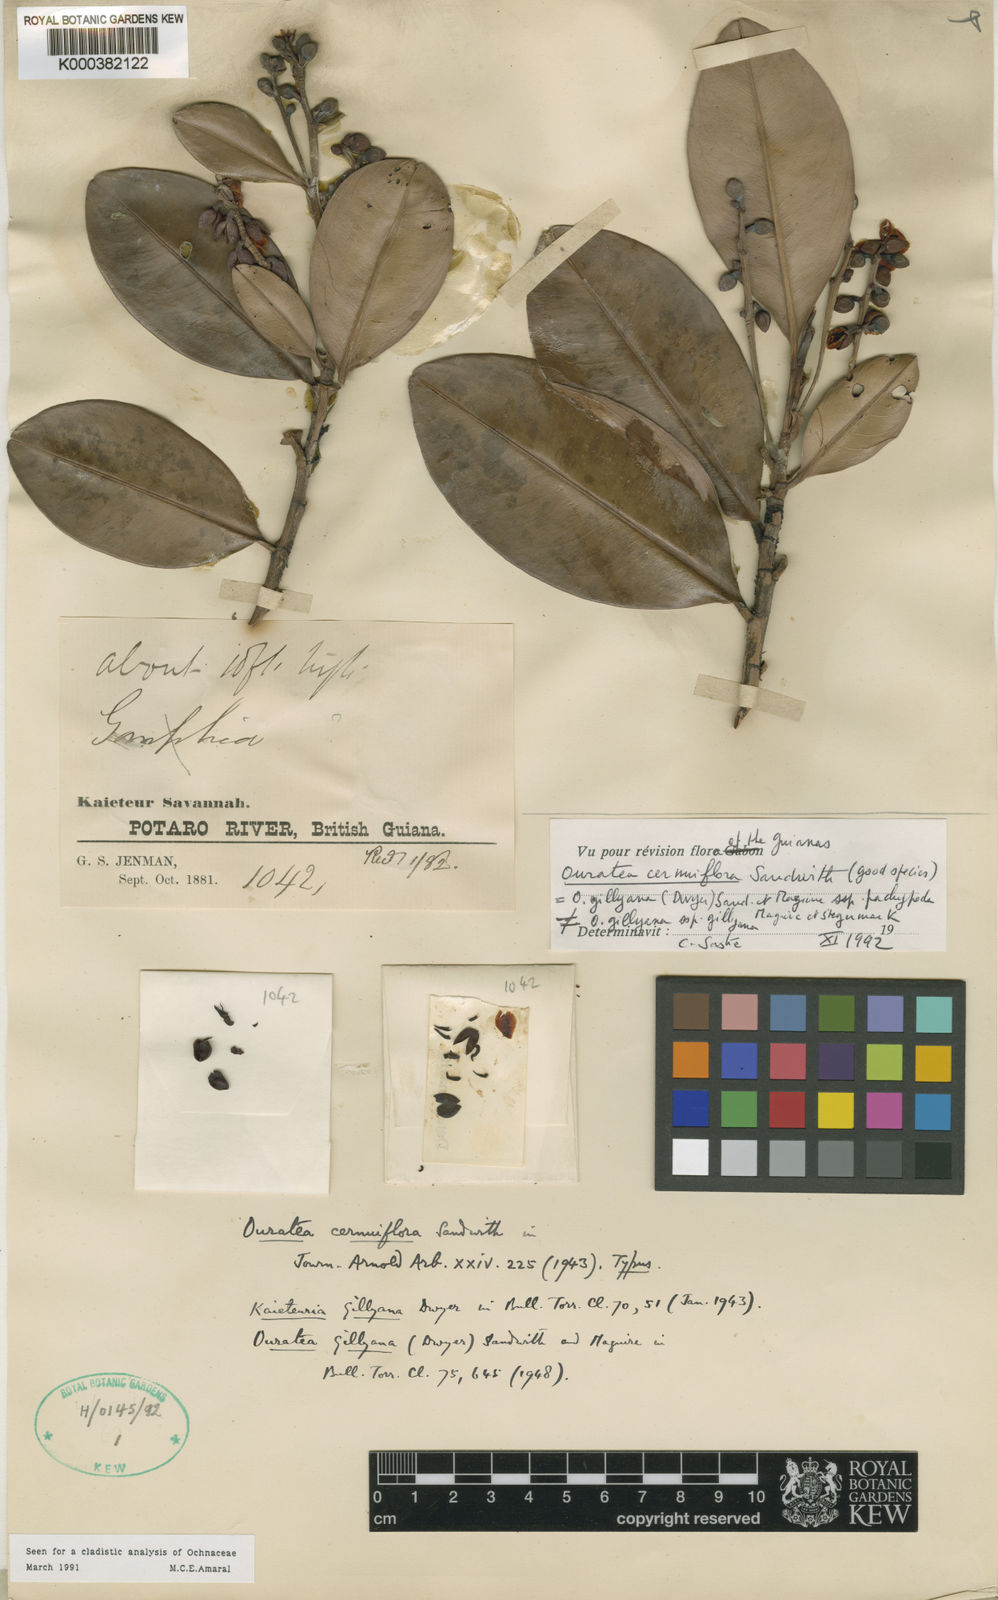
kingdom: Plantae
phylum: Tracheophyta
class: Magnoliopsida
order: Malpighiales
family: Ochnaceae
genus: Ouratea
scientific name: Ouratea cernuiflora
